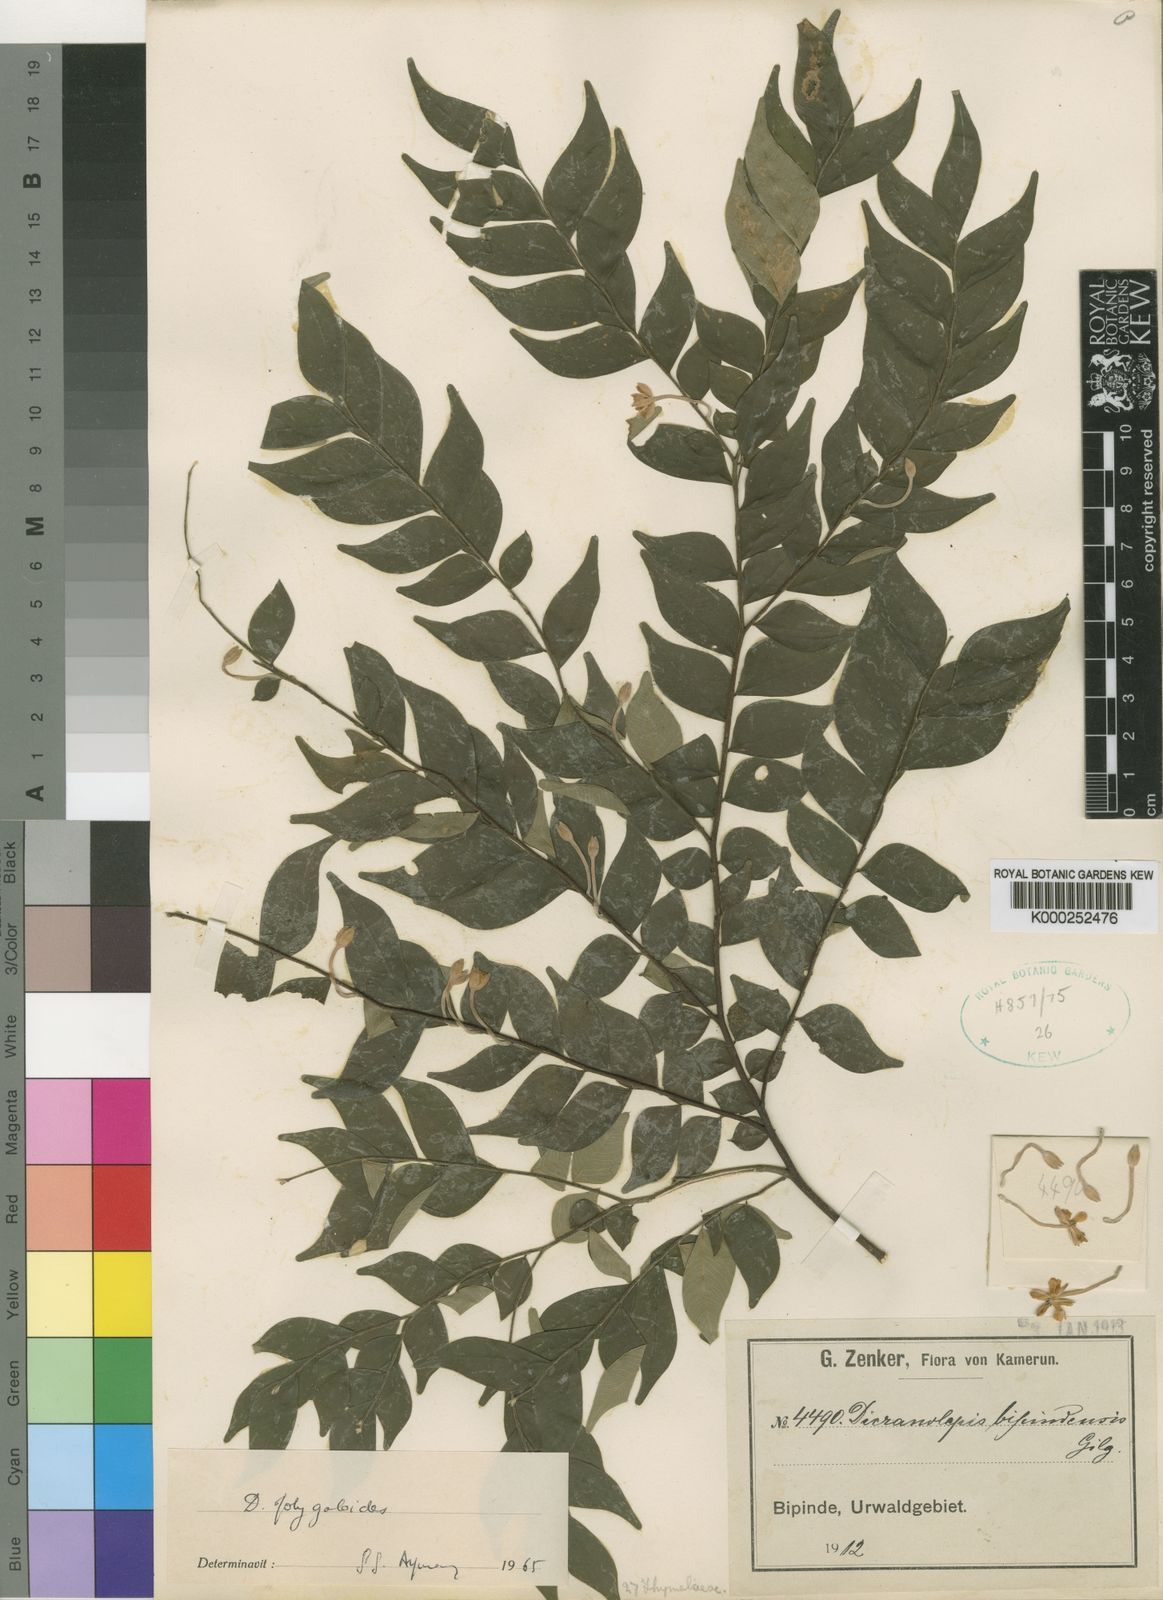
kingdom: Plantae
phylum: Tracheophyta
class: Magnoliopsida
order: Malvales
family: Thymelaeaceae
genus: Dicranolepis
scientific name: Dicranolepis
